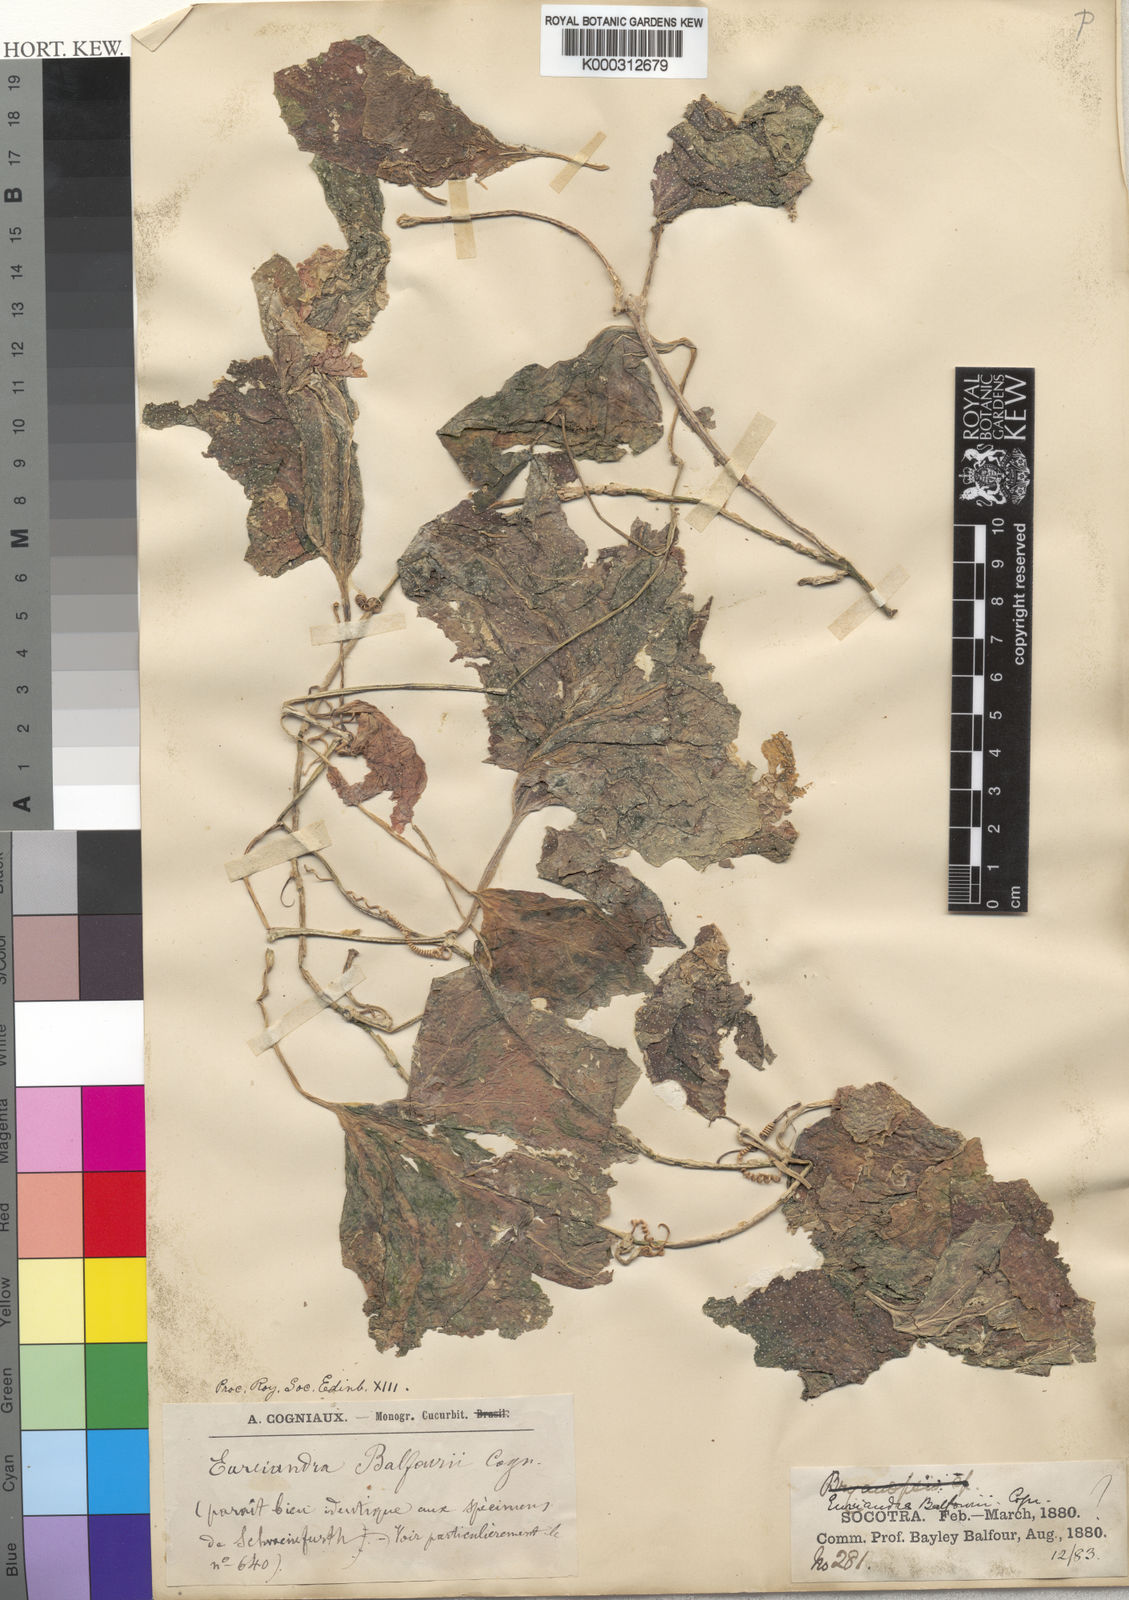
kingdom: Plantae
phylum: Tracheophyta
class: Magnoliopsida
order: Cucurbitales
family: Cucurbitaceae
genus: Eureiandra
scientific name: Eureiandra balfourii
